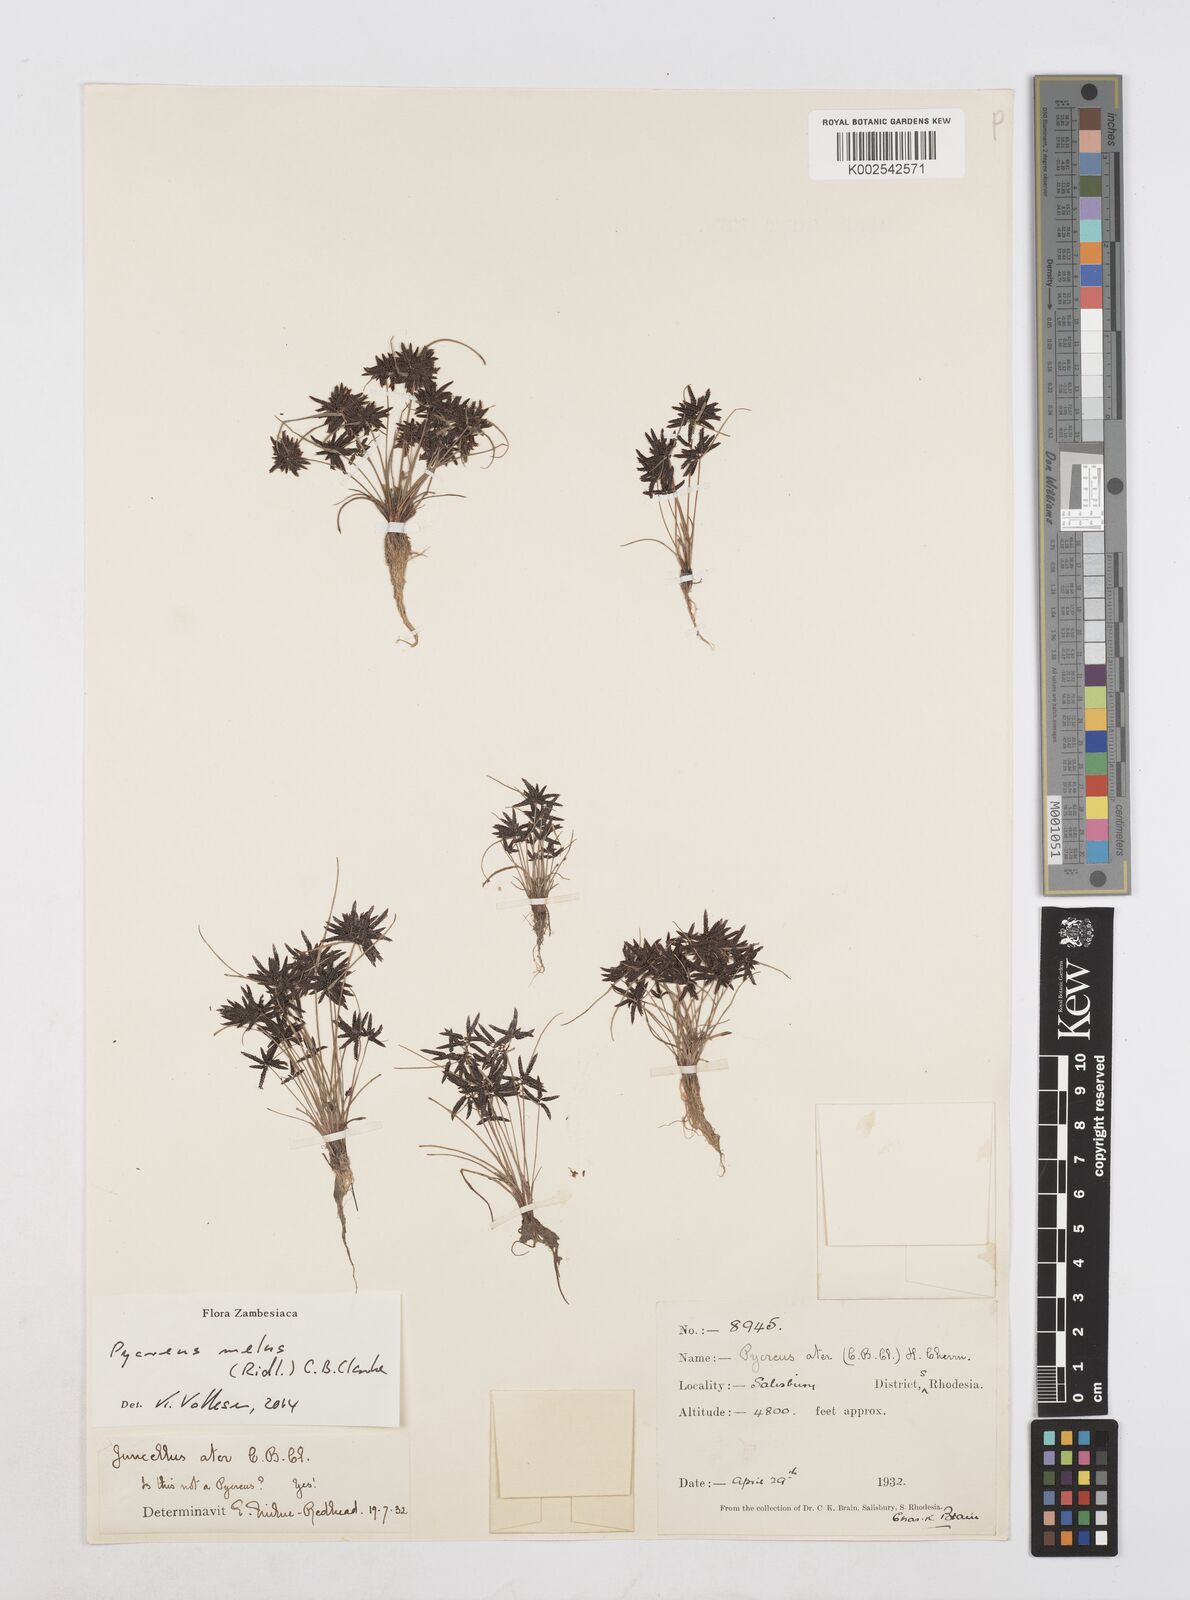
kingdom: Plantae
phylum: Tracheophyta
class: Liliopsida
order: Poales
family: Cyperaceae
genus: Cyperus
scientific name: Cyperus melas
